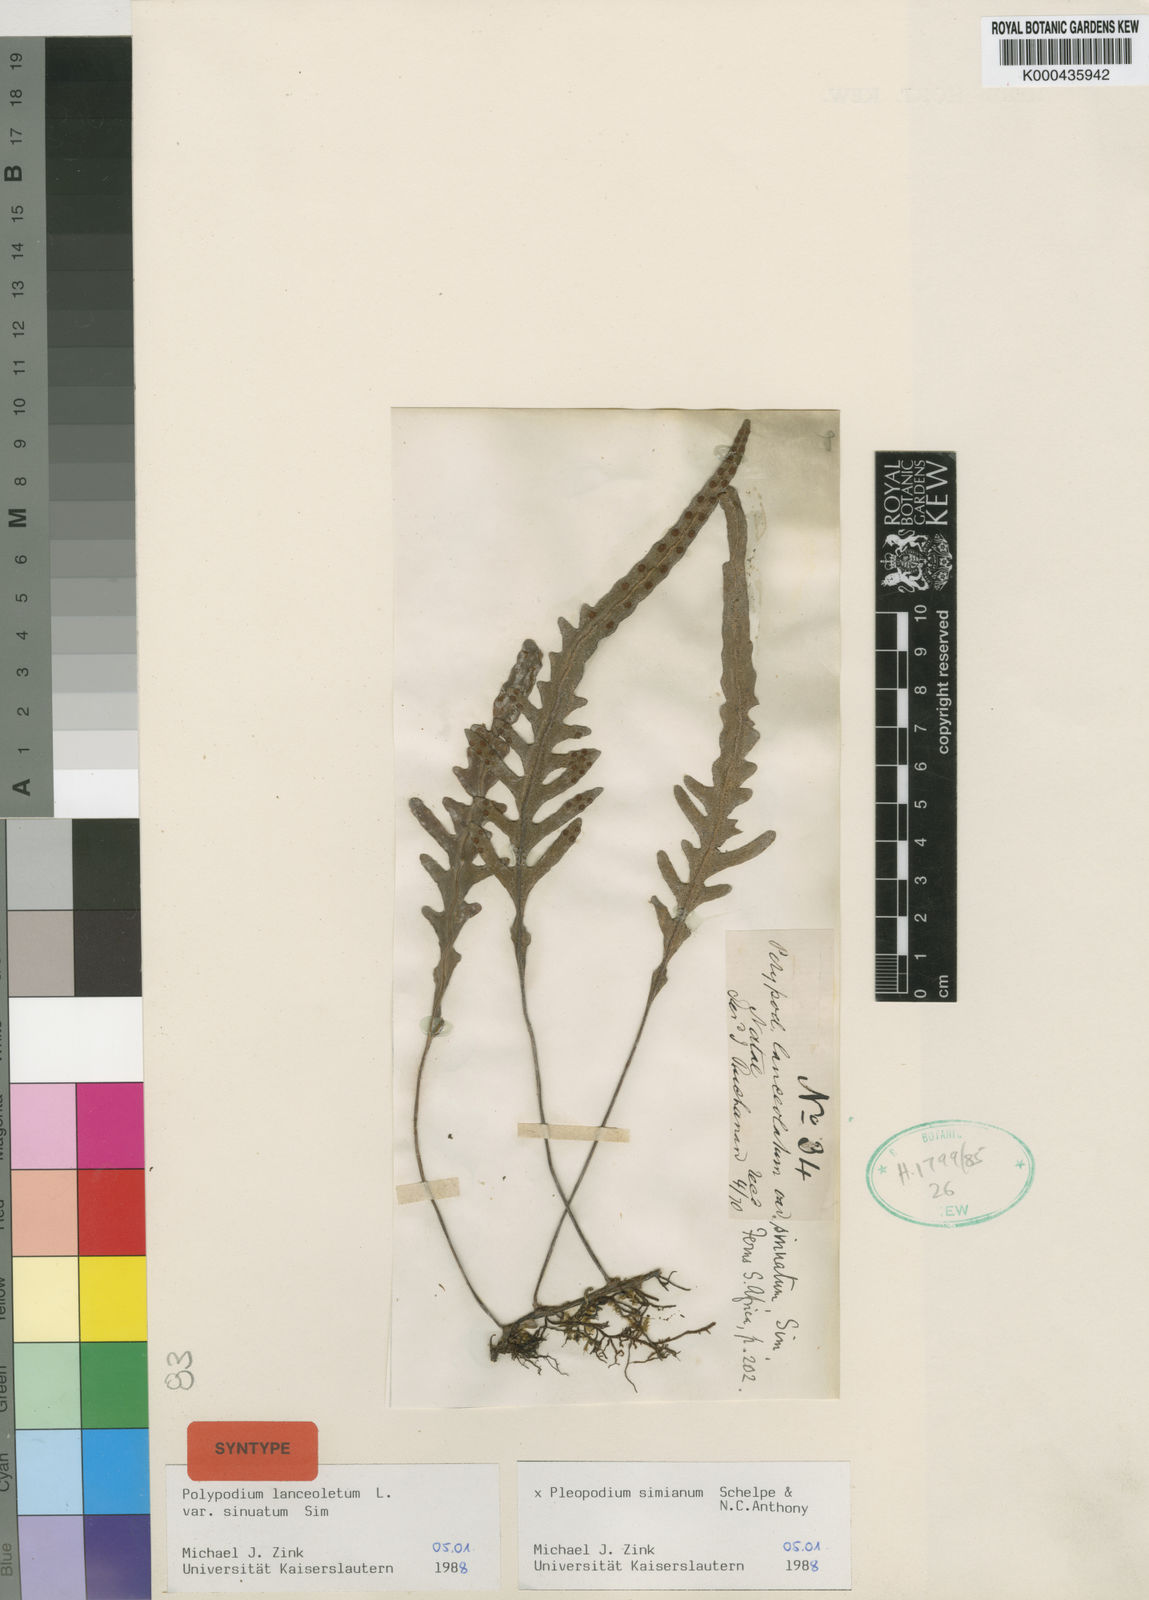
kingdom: Plantae
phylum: Tracheophyta
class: Polypodiopsida
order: Polypodiales
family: Polypodiaceae
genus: Pleopeltis
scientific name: Pleopeltis simiana
